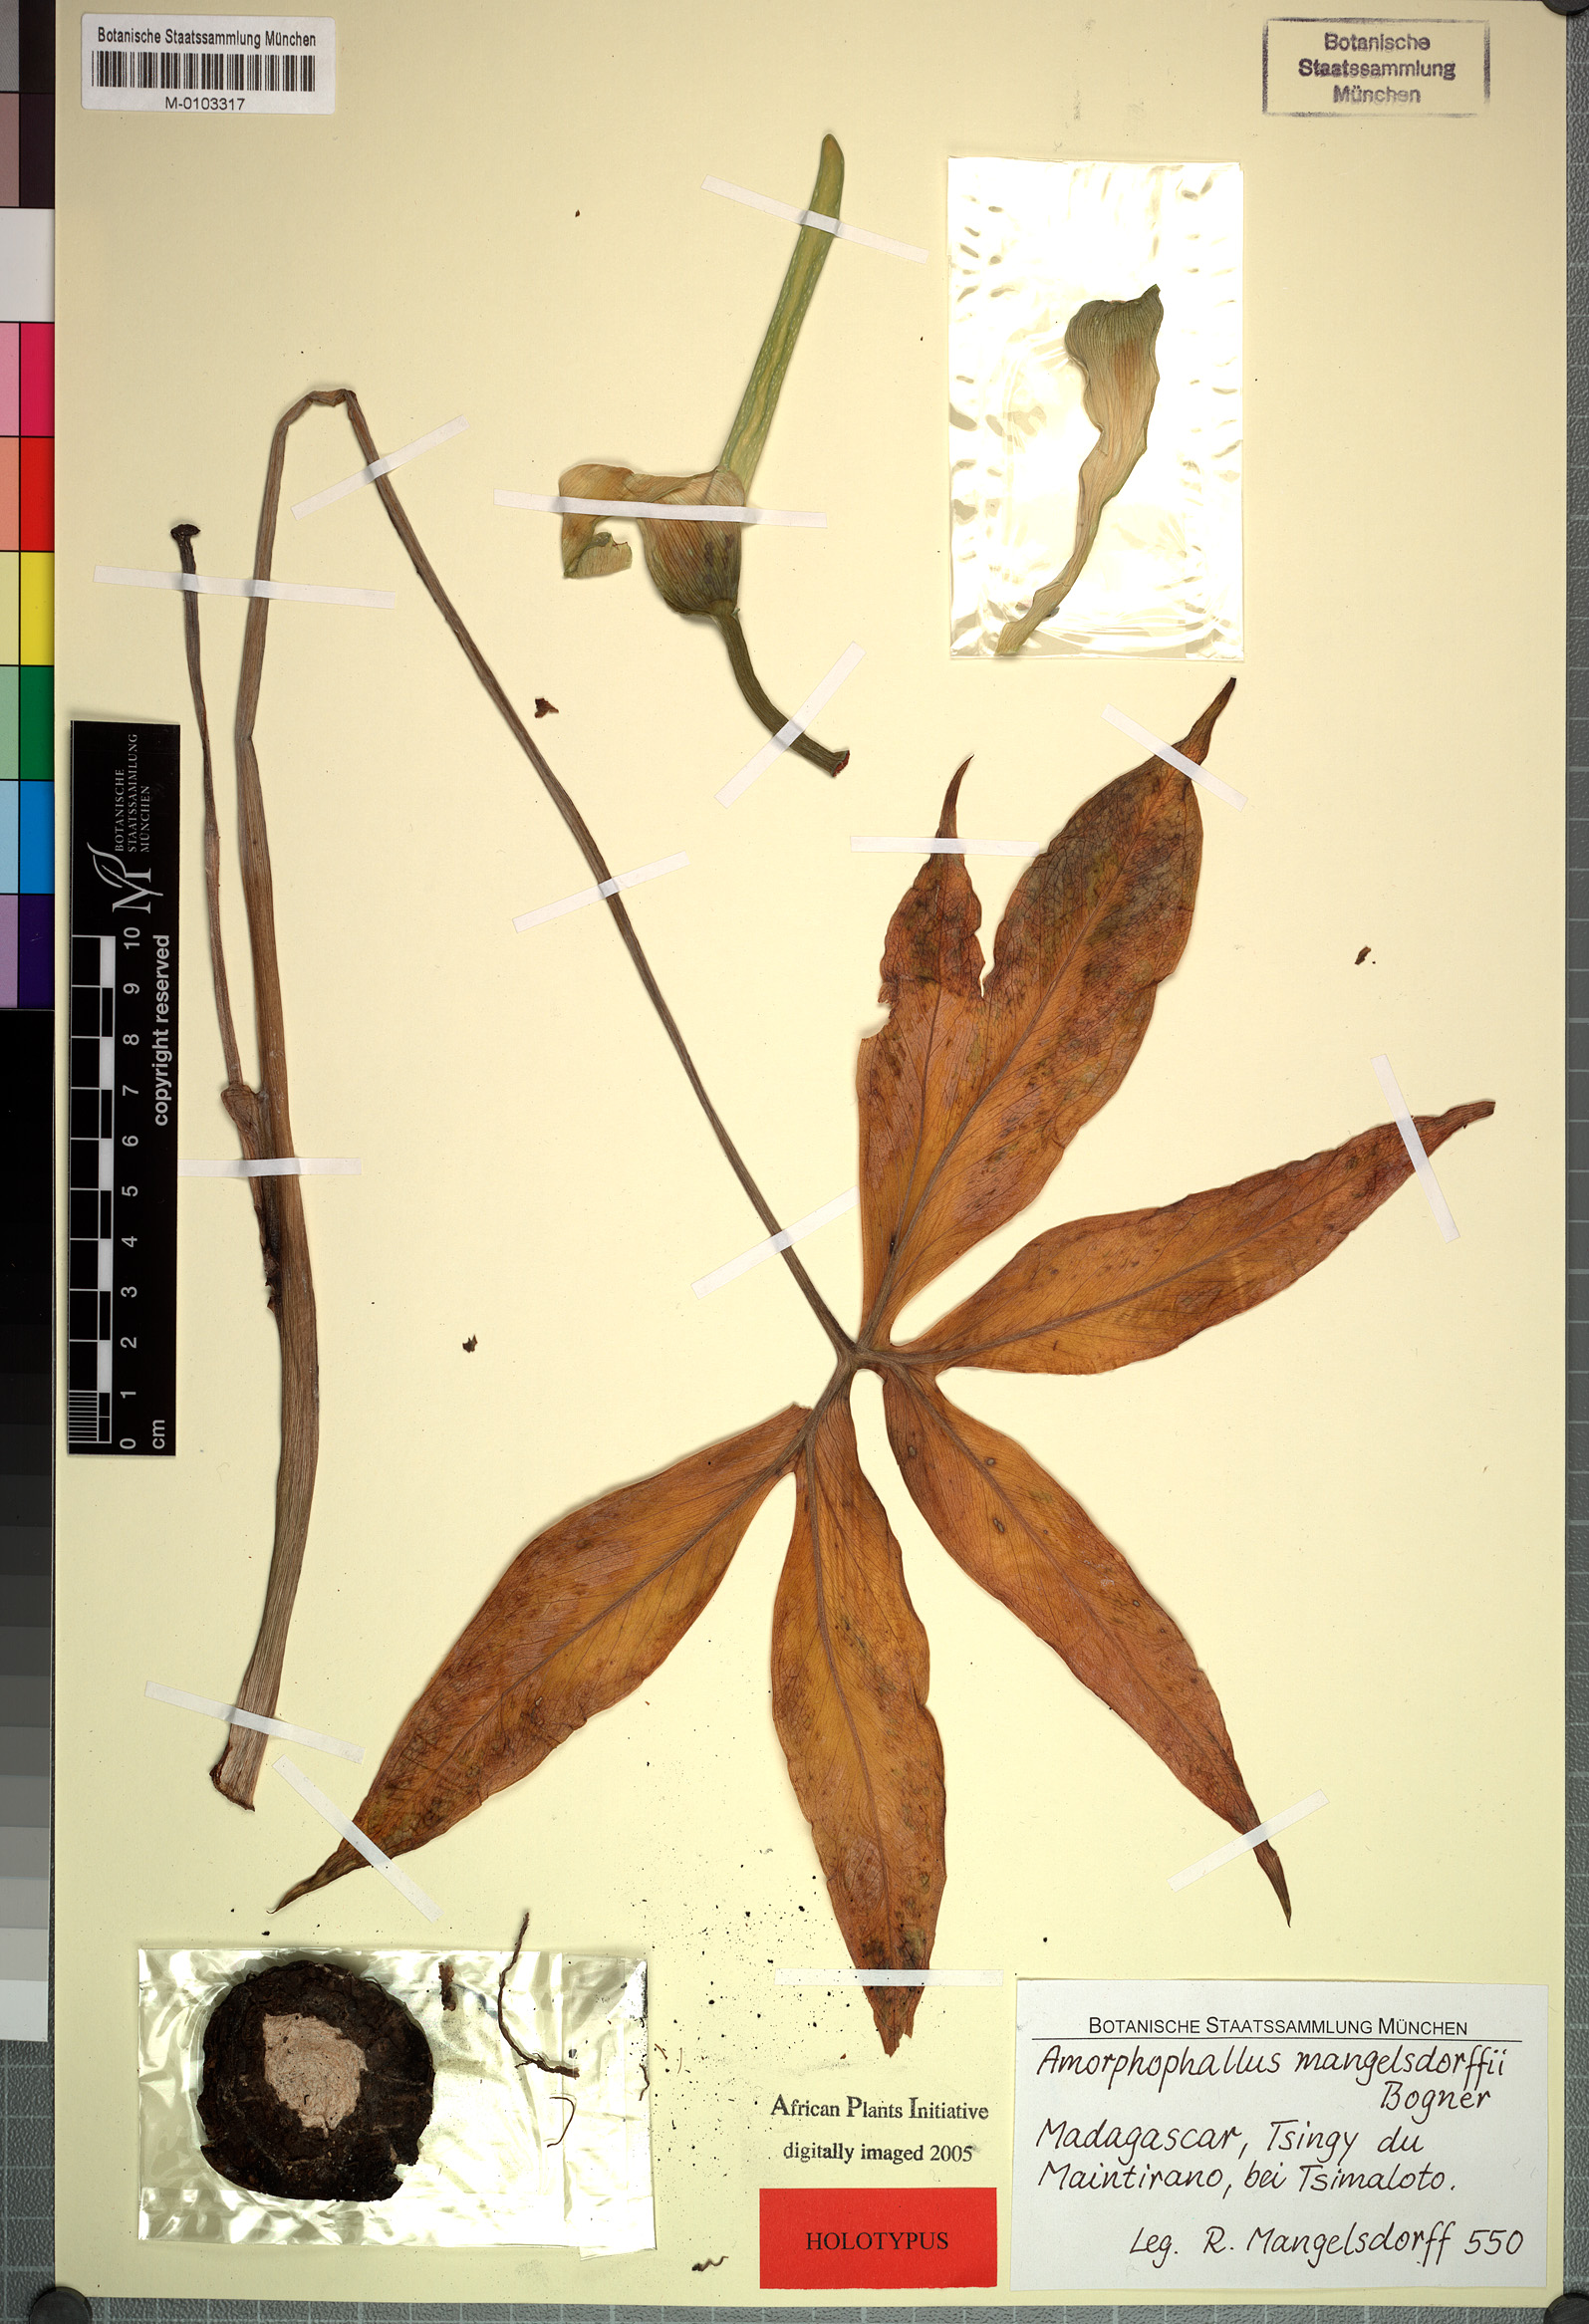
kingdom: Plantae
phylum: Tracheophyta
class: Liliopsida
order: Alismatales
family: Araceae
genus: Amorphophallus
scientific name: Amorphophallus mangelsdorffii
